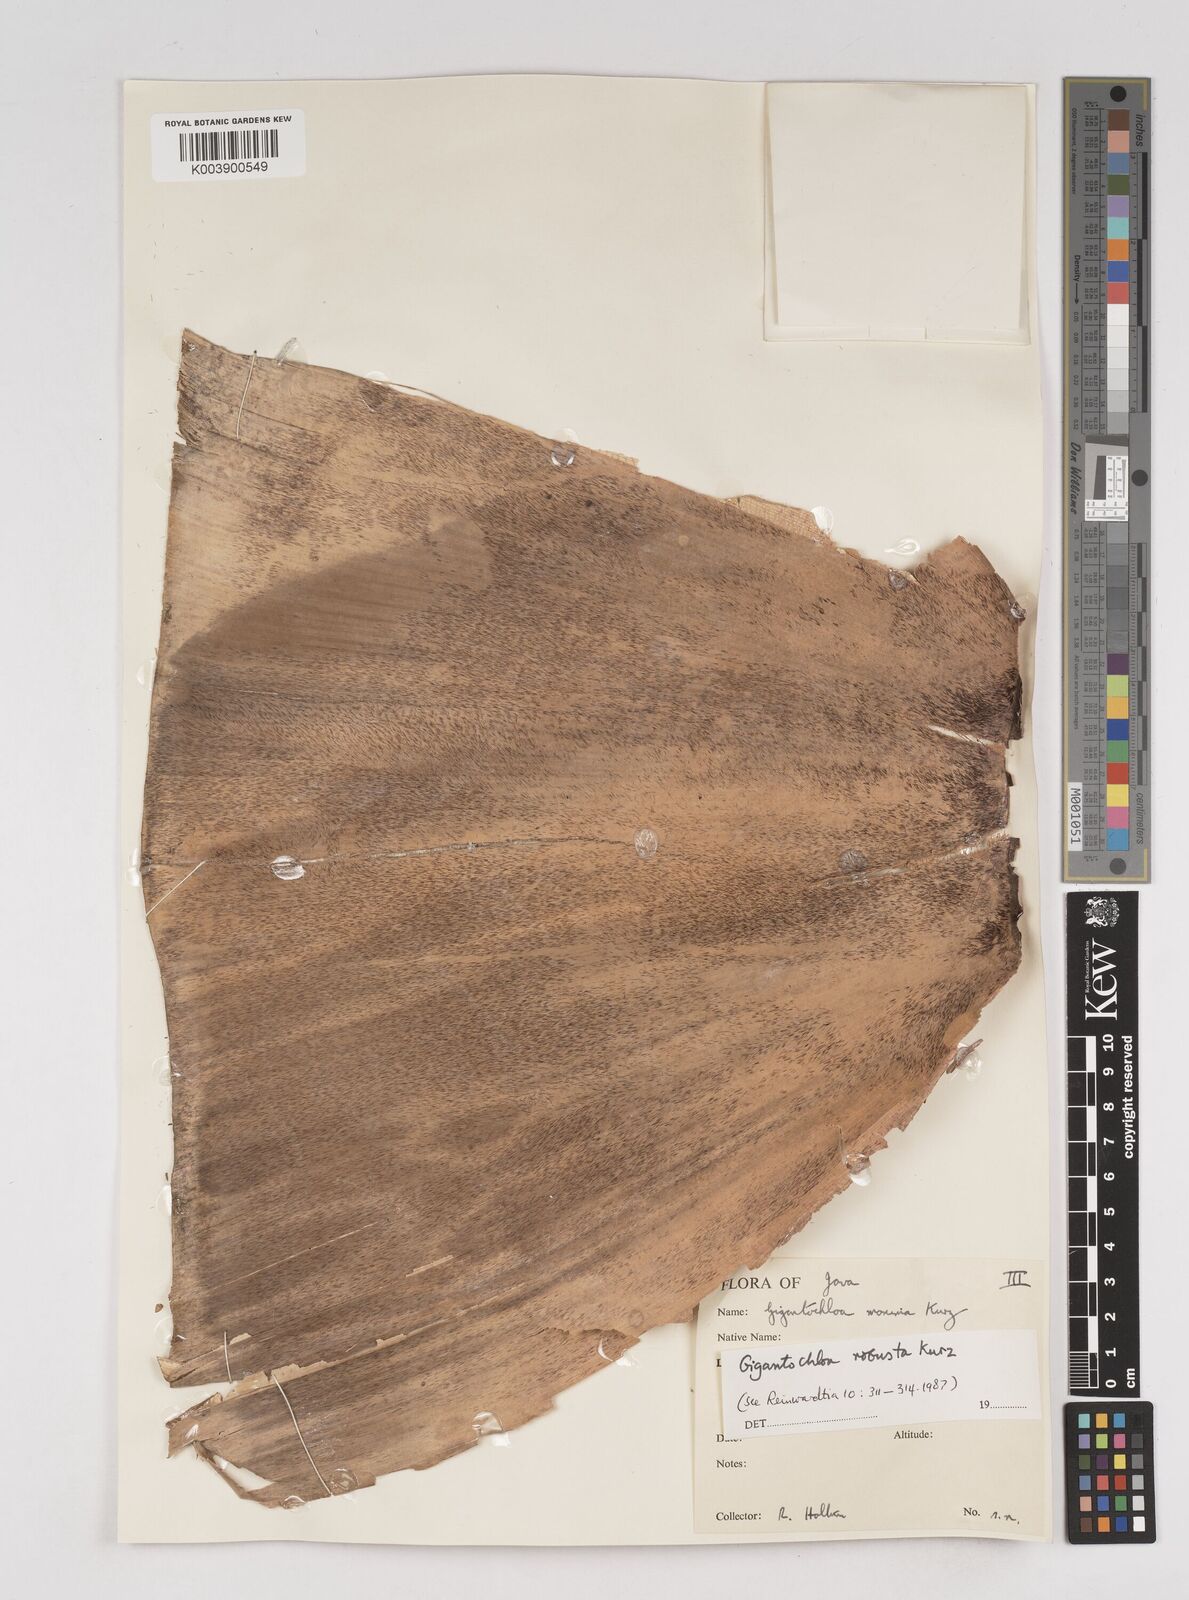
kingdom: Plantae
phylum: Tracheophyta
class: Liliopsida
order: Poales
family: Poaceae
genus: Gigantochloa
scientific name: Gigantochloa robusta
